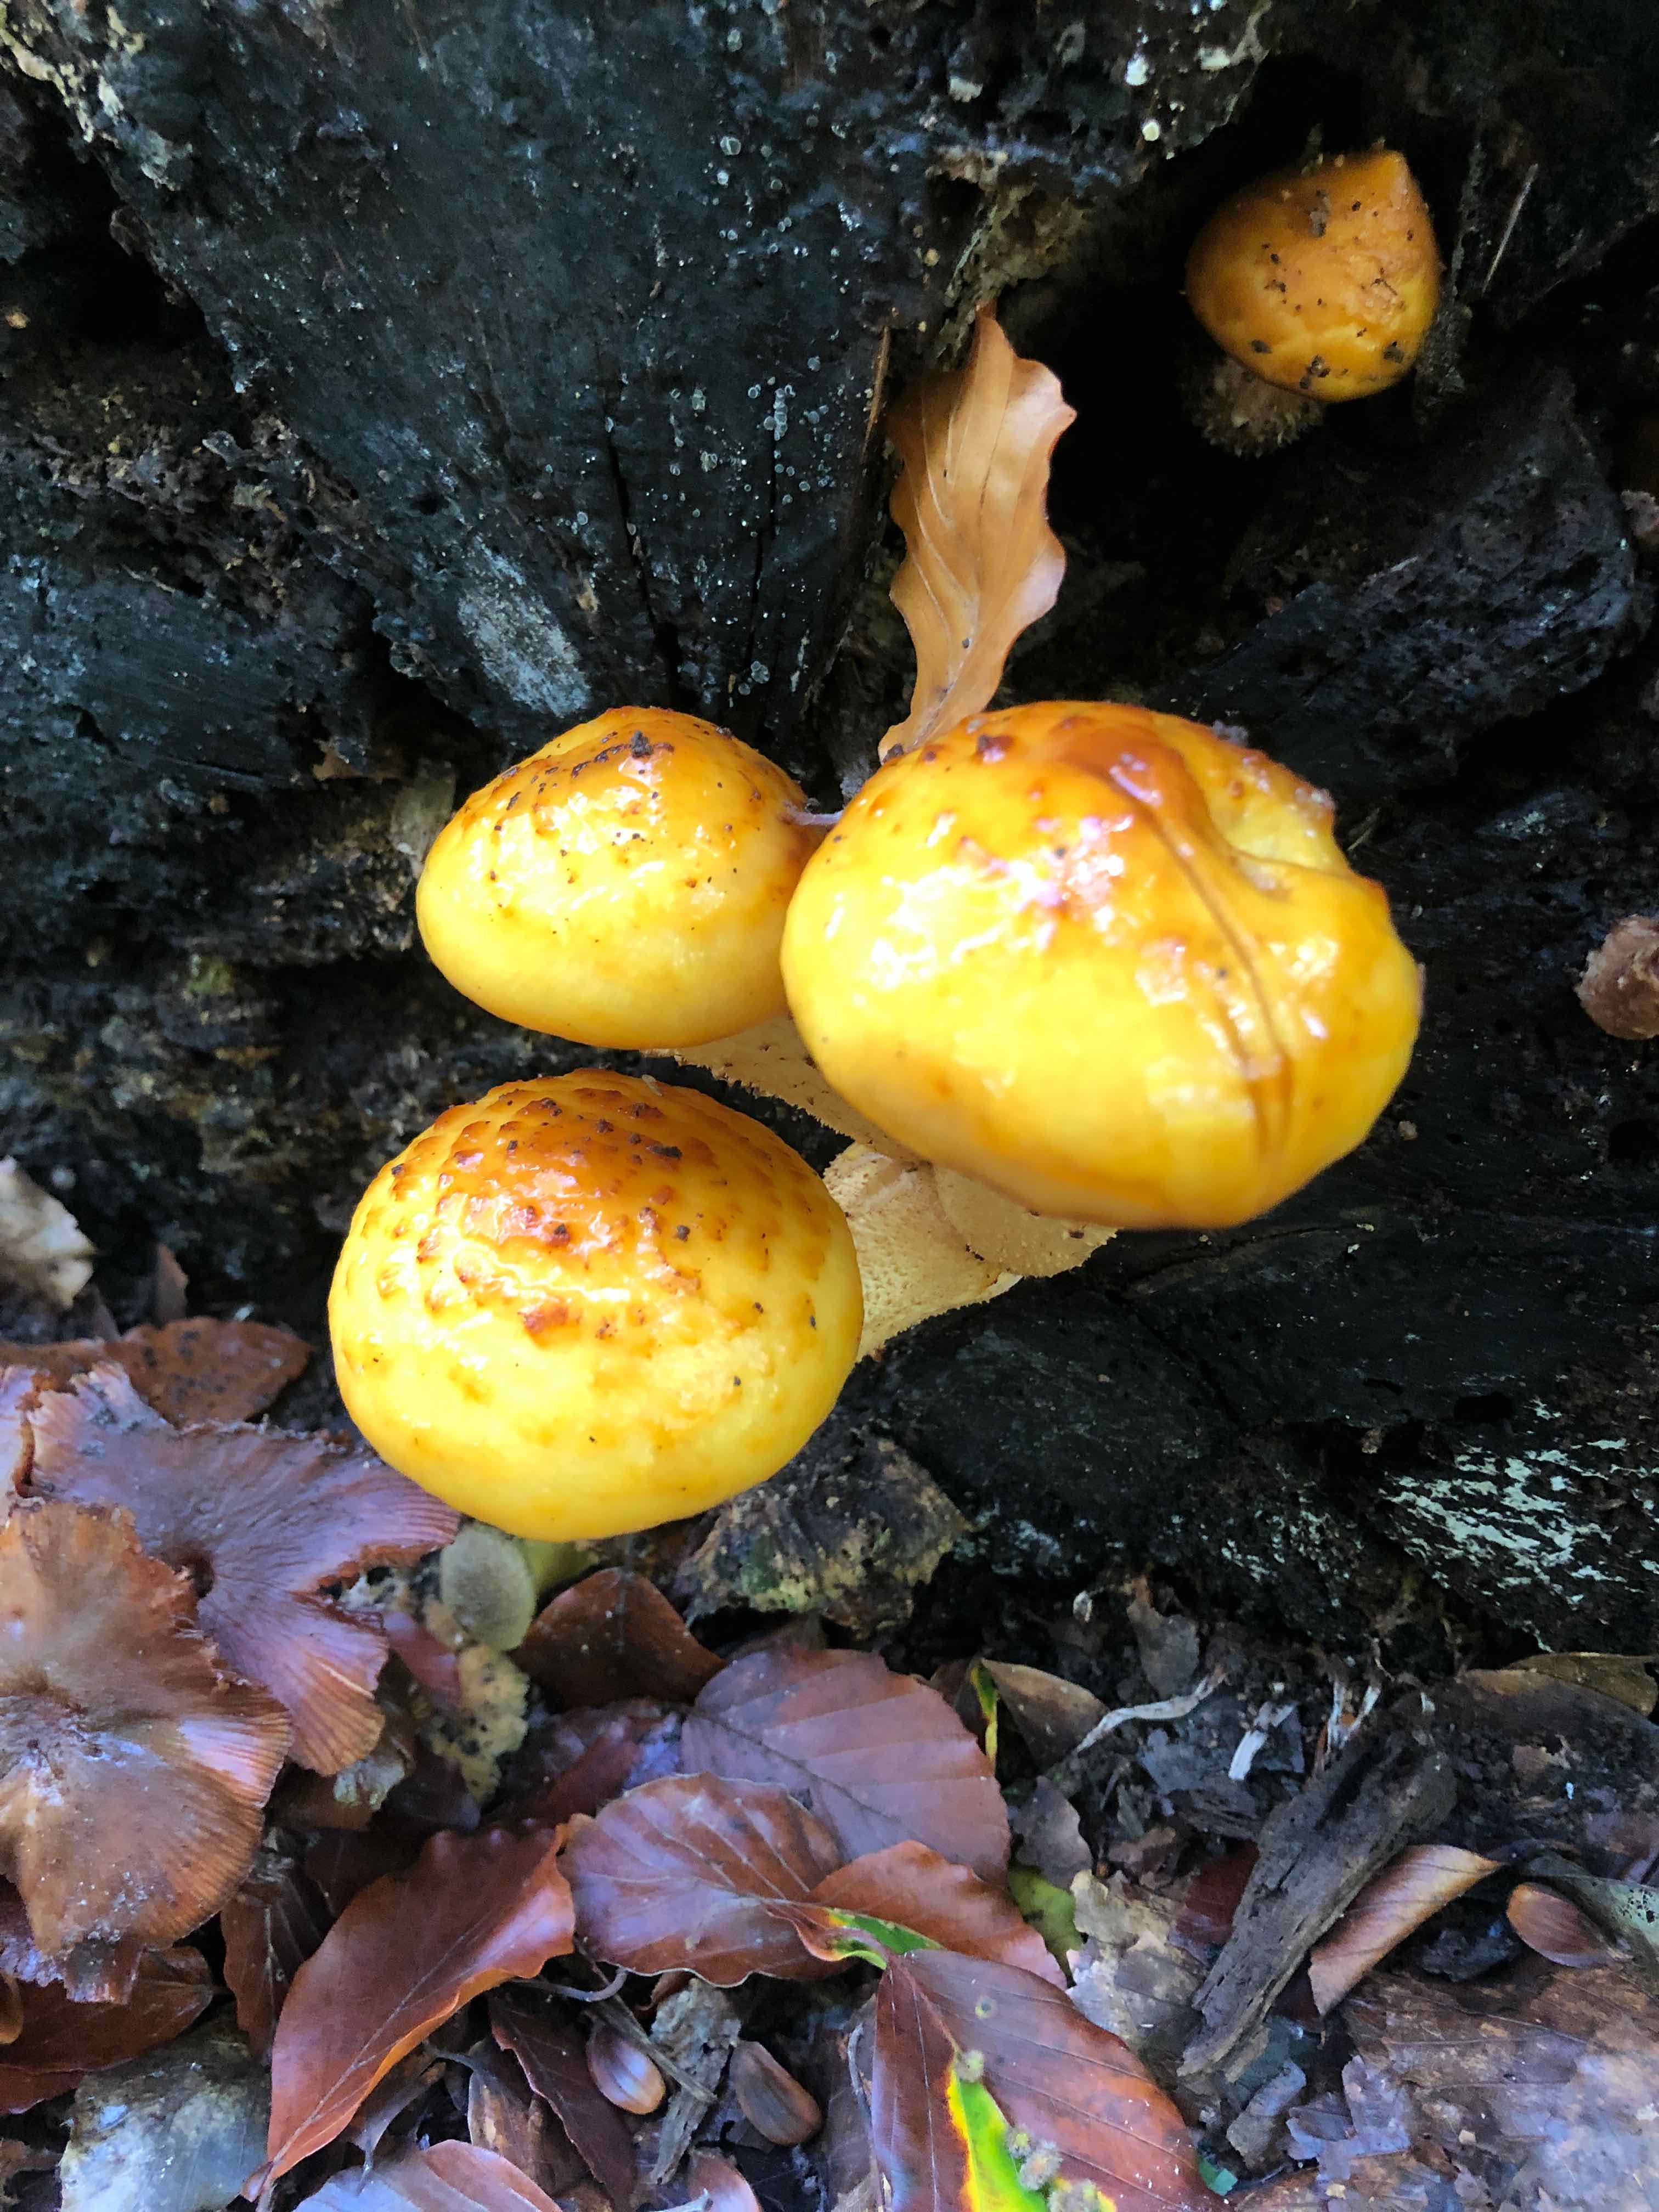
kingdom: Fungi
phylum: Basidiomycota
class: Agaricomycetes
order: Agaricales
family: Strophariaceae
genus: Pholiota
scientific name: Pholiota adiposa
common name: højtsiddende skælhat
